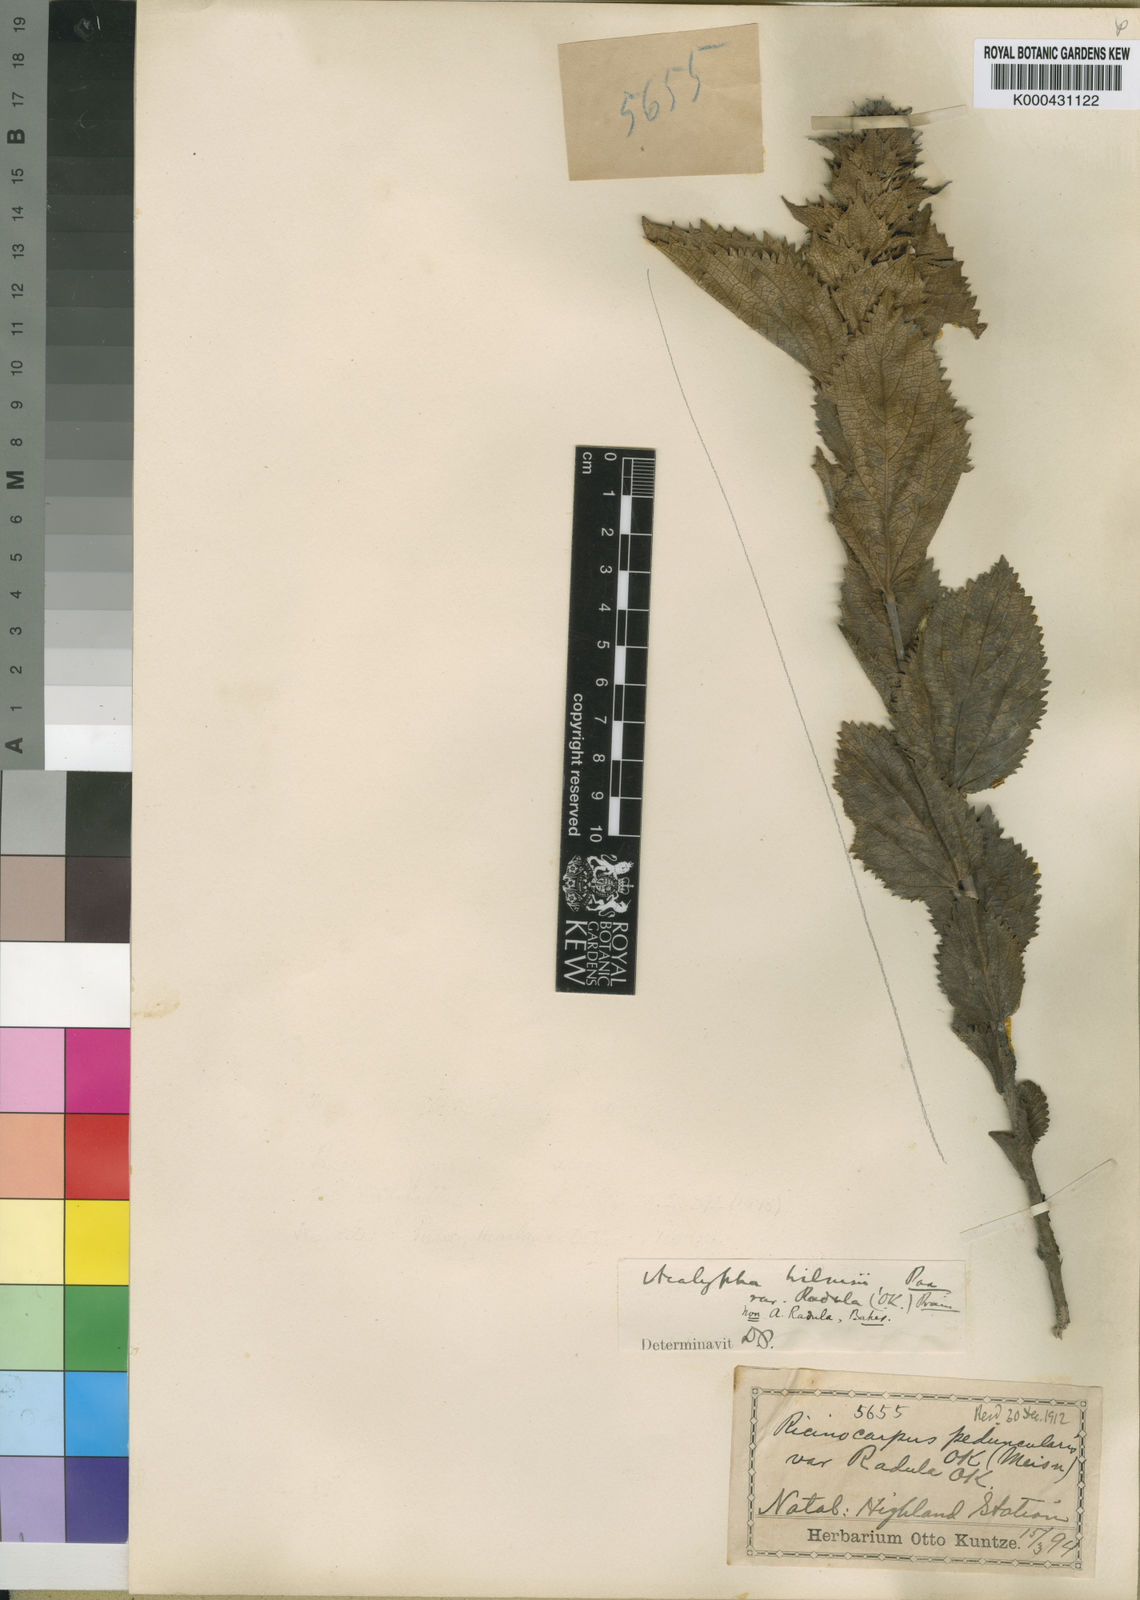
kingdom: Plantae
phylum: Tracheophyta
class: Magnoliopsida
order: Malpighiales
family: Euphorbiaceae
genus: Acalypha
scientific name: Acalypha wilmsii
